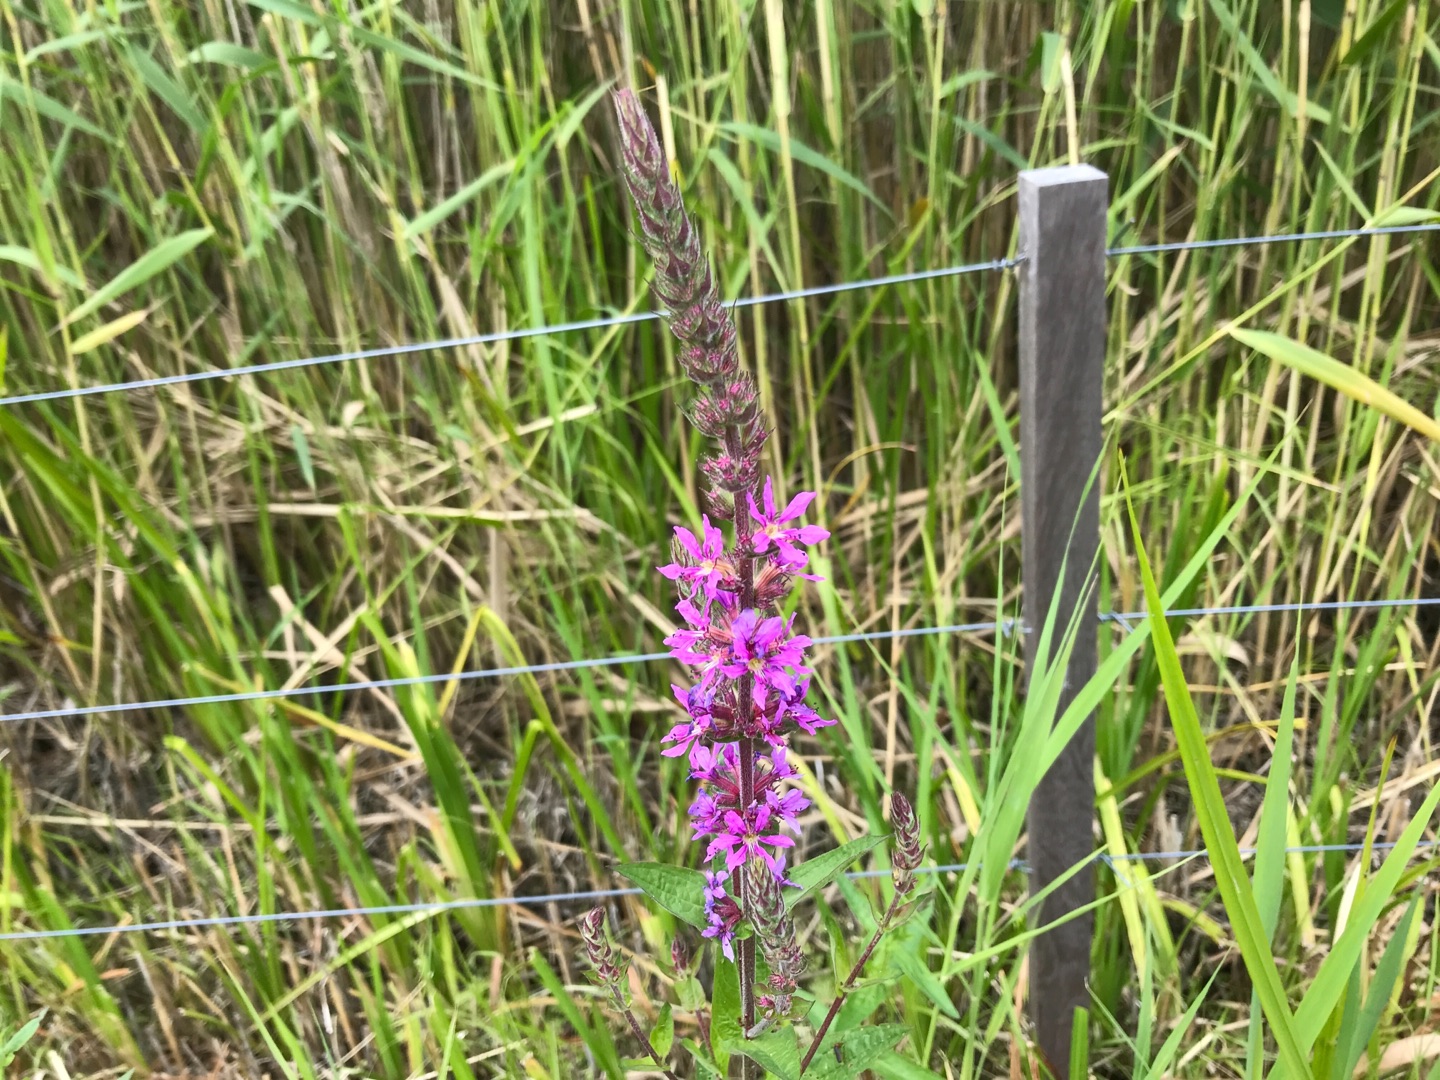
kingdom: Plantae
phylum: Tracheophyta
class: Magnoliopsida
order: Myrtales
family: Lythraceae
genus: Lythrum
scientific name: Lythrum salicaria
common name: Kattehale
